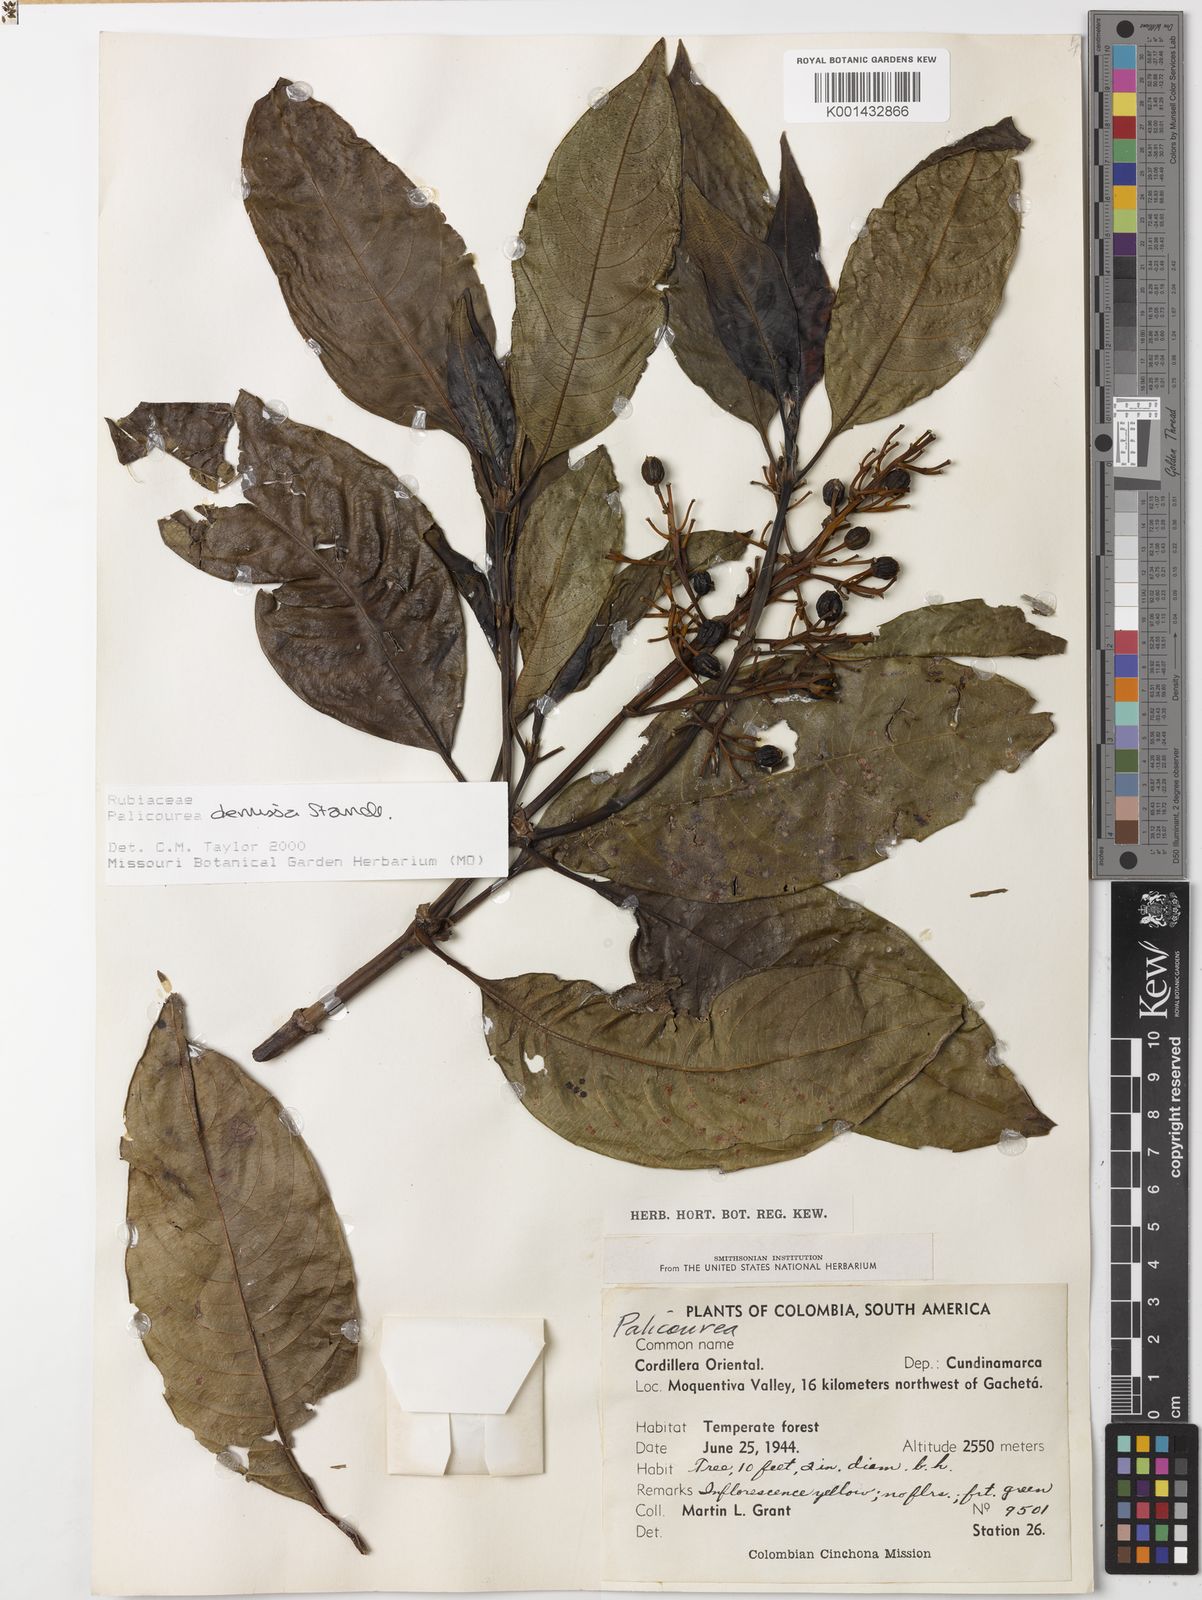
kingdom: Plantae
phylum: Tracheophyta
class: Magnoliopsida
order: Gentianales
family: Rubiaceae
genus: Palicourea
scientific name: Palicourea demissa
